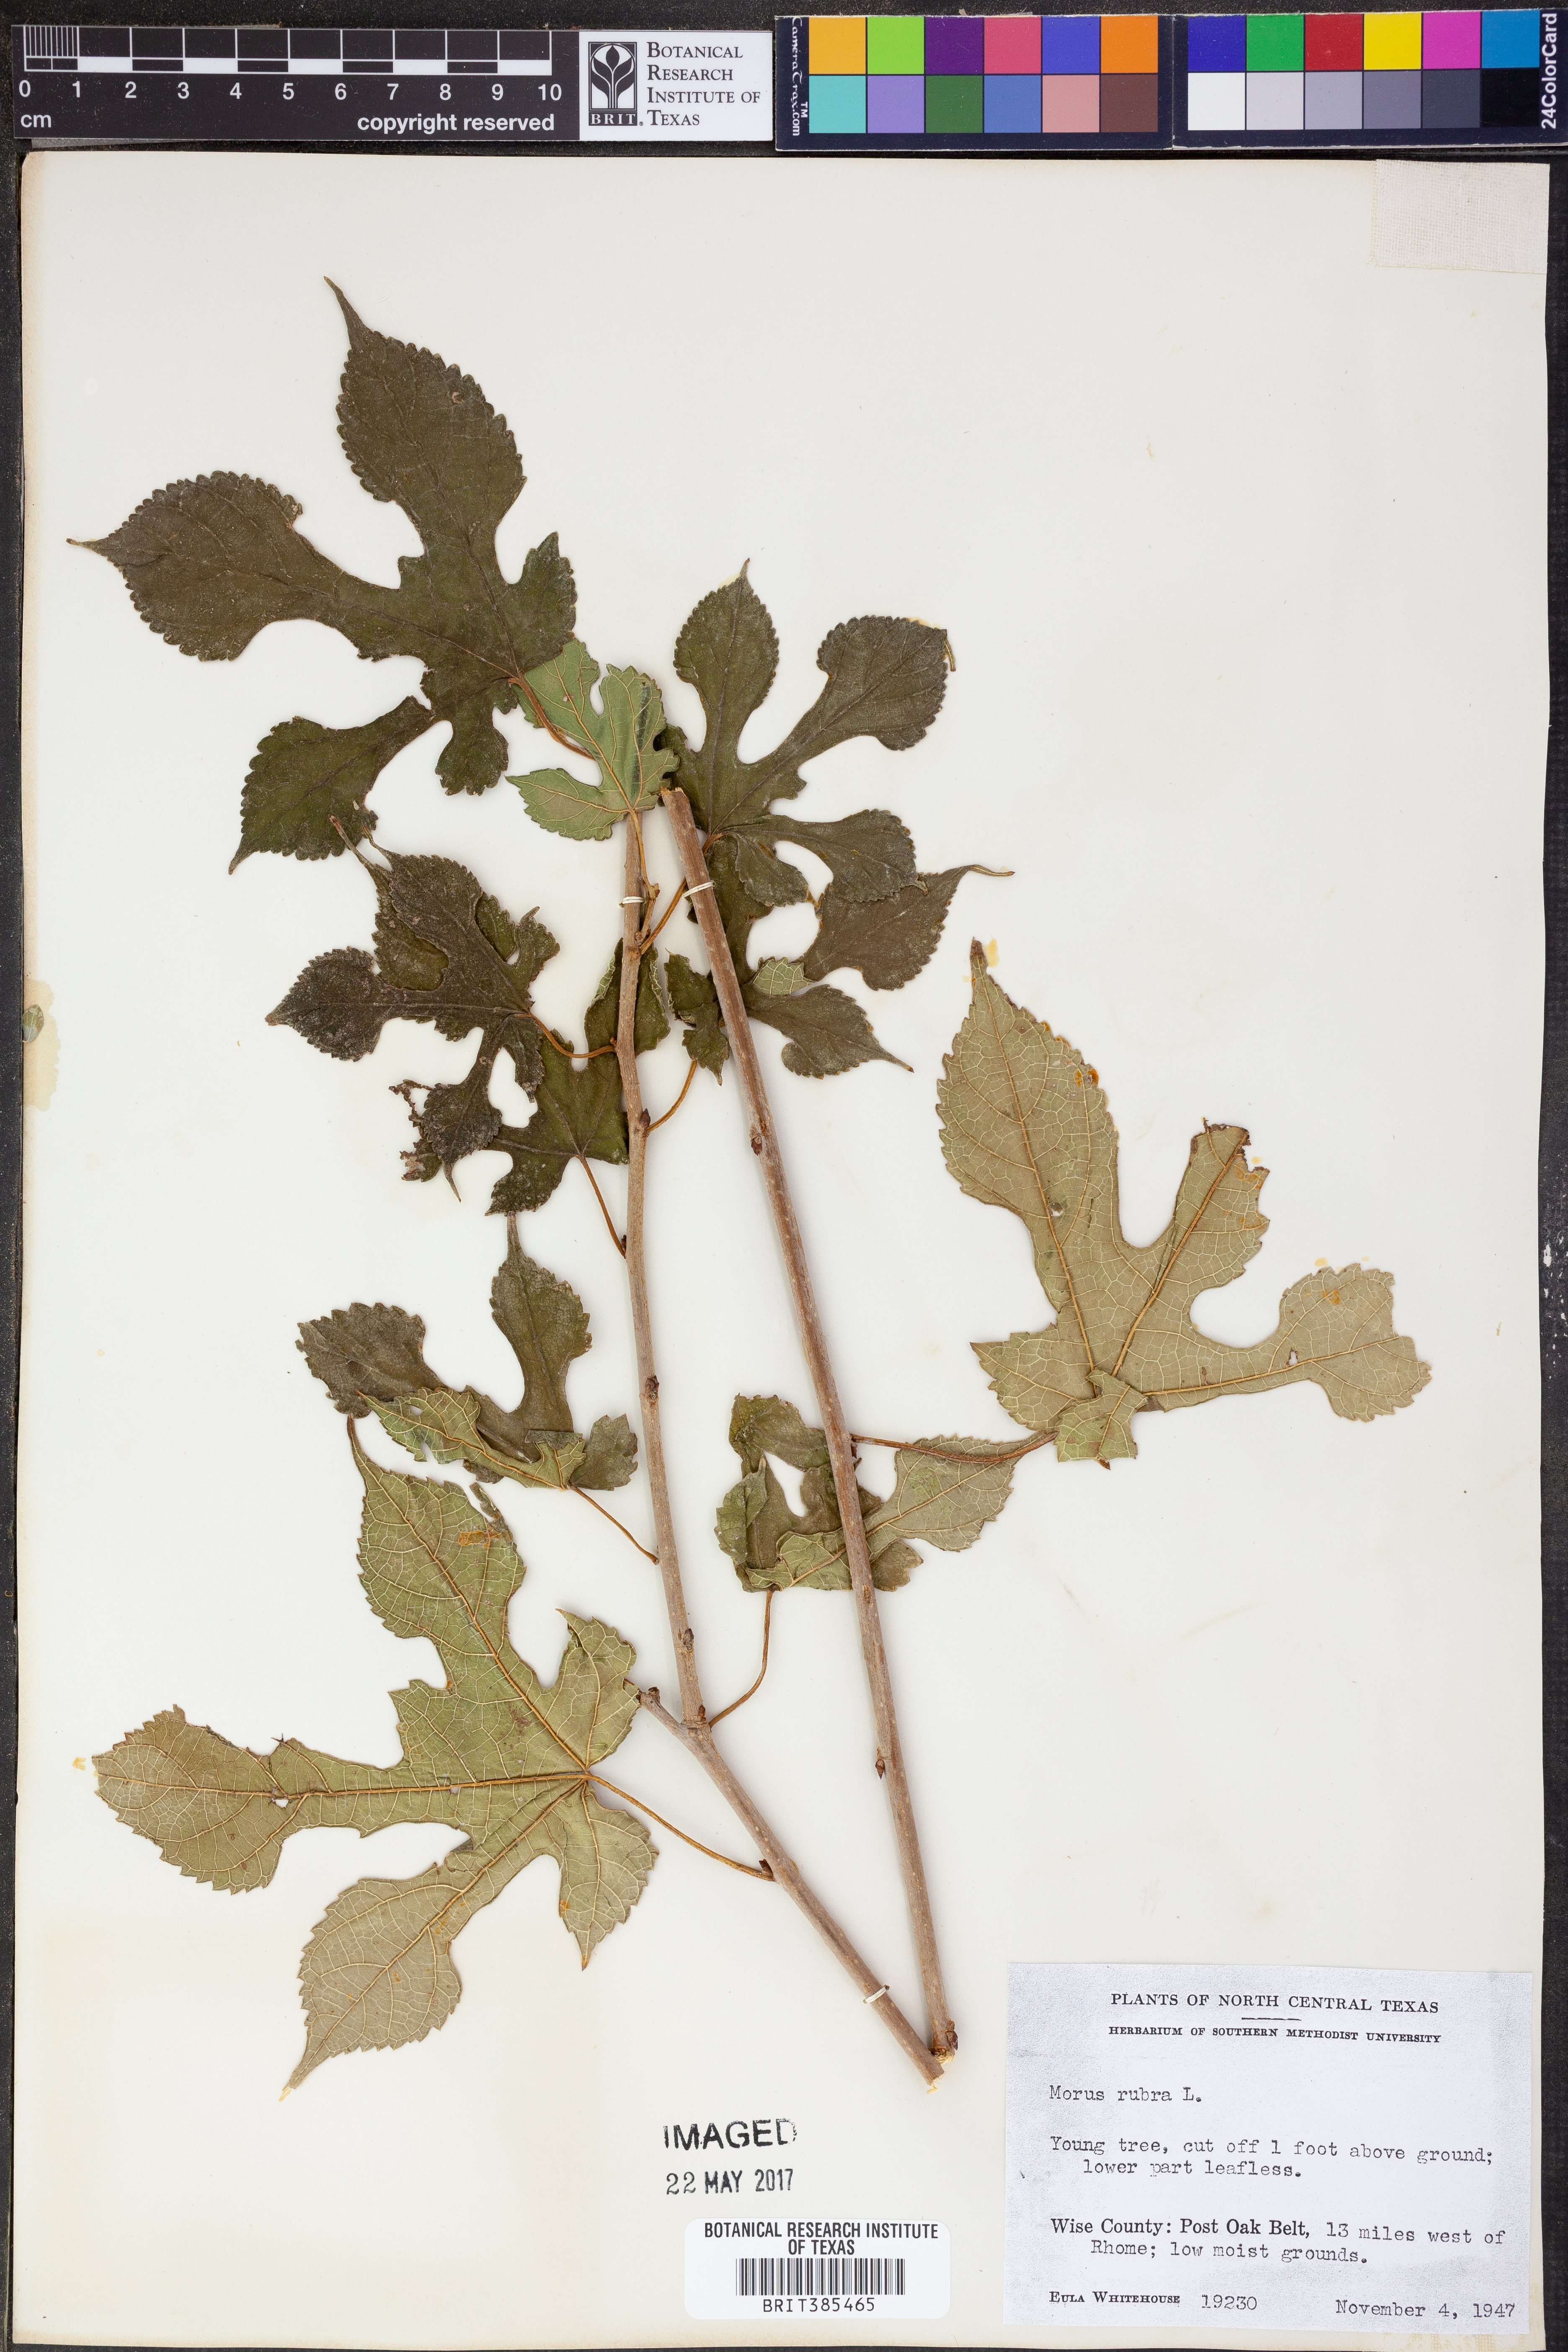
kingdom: Plantae
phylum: Tracheophyta
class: Magnoliopsida
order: Rosales
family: Moraceae
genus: Morus
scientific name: Morus rubra
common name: Red mulberry
